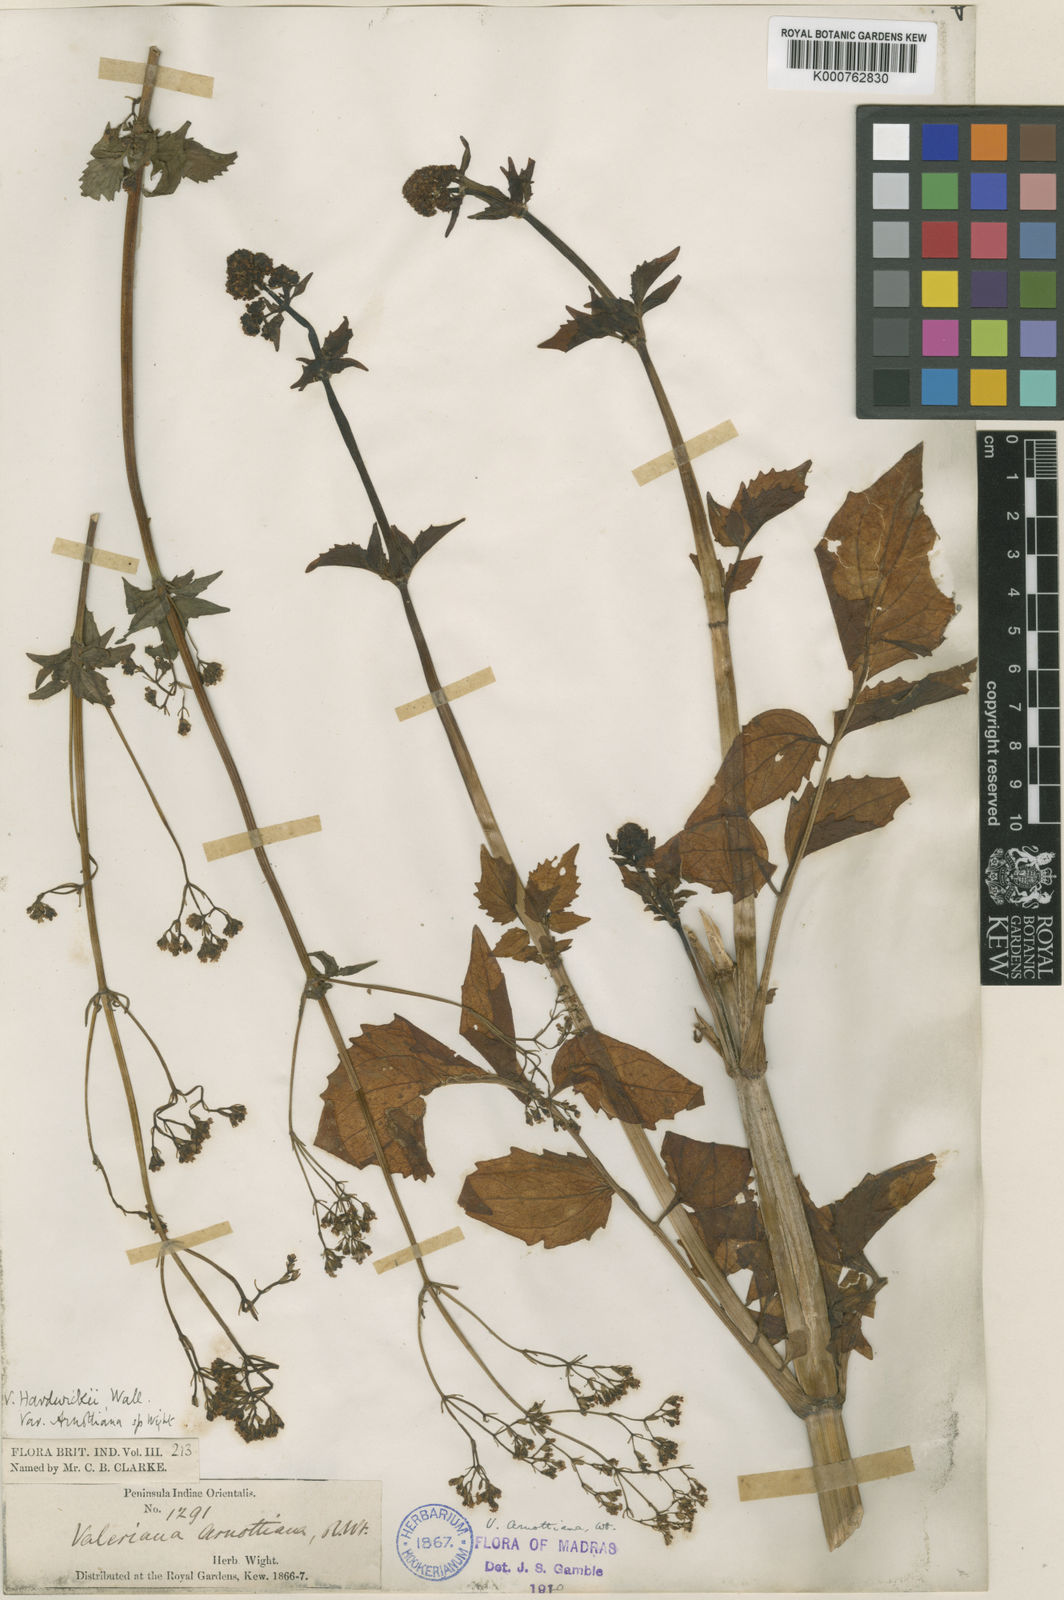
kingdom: Plantae
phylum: Tracheophyta
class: Magnoliopsida
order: Dipsacales
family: Caprifoliaceae
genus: Valeriana
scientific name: Valeriana hardwickei
